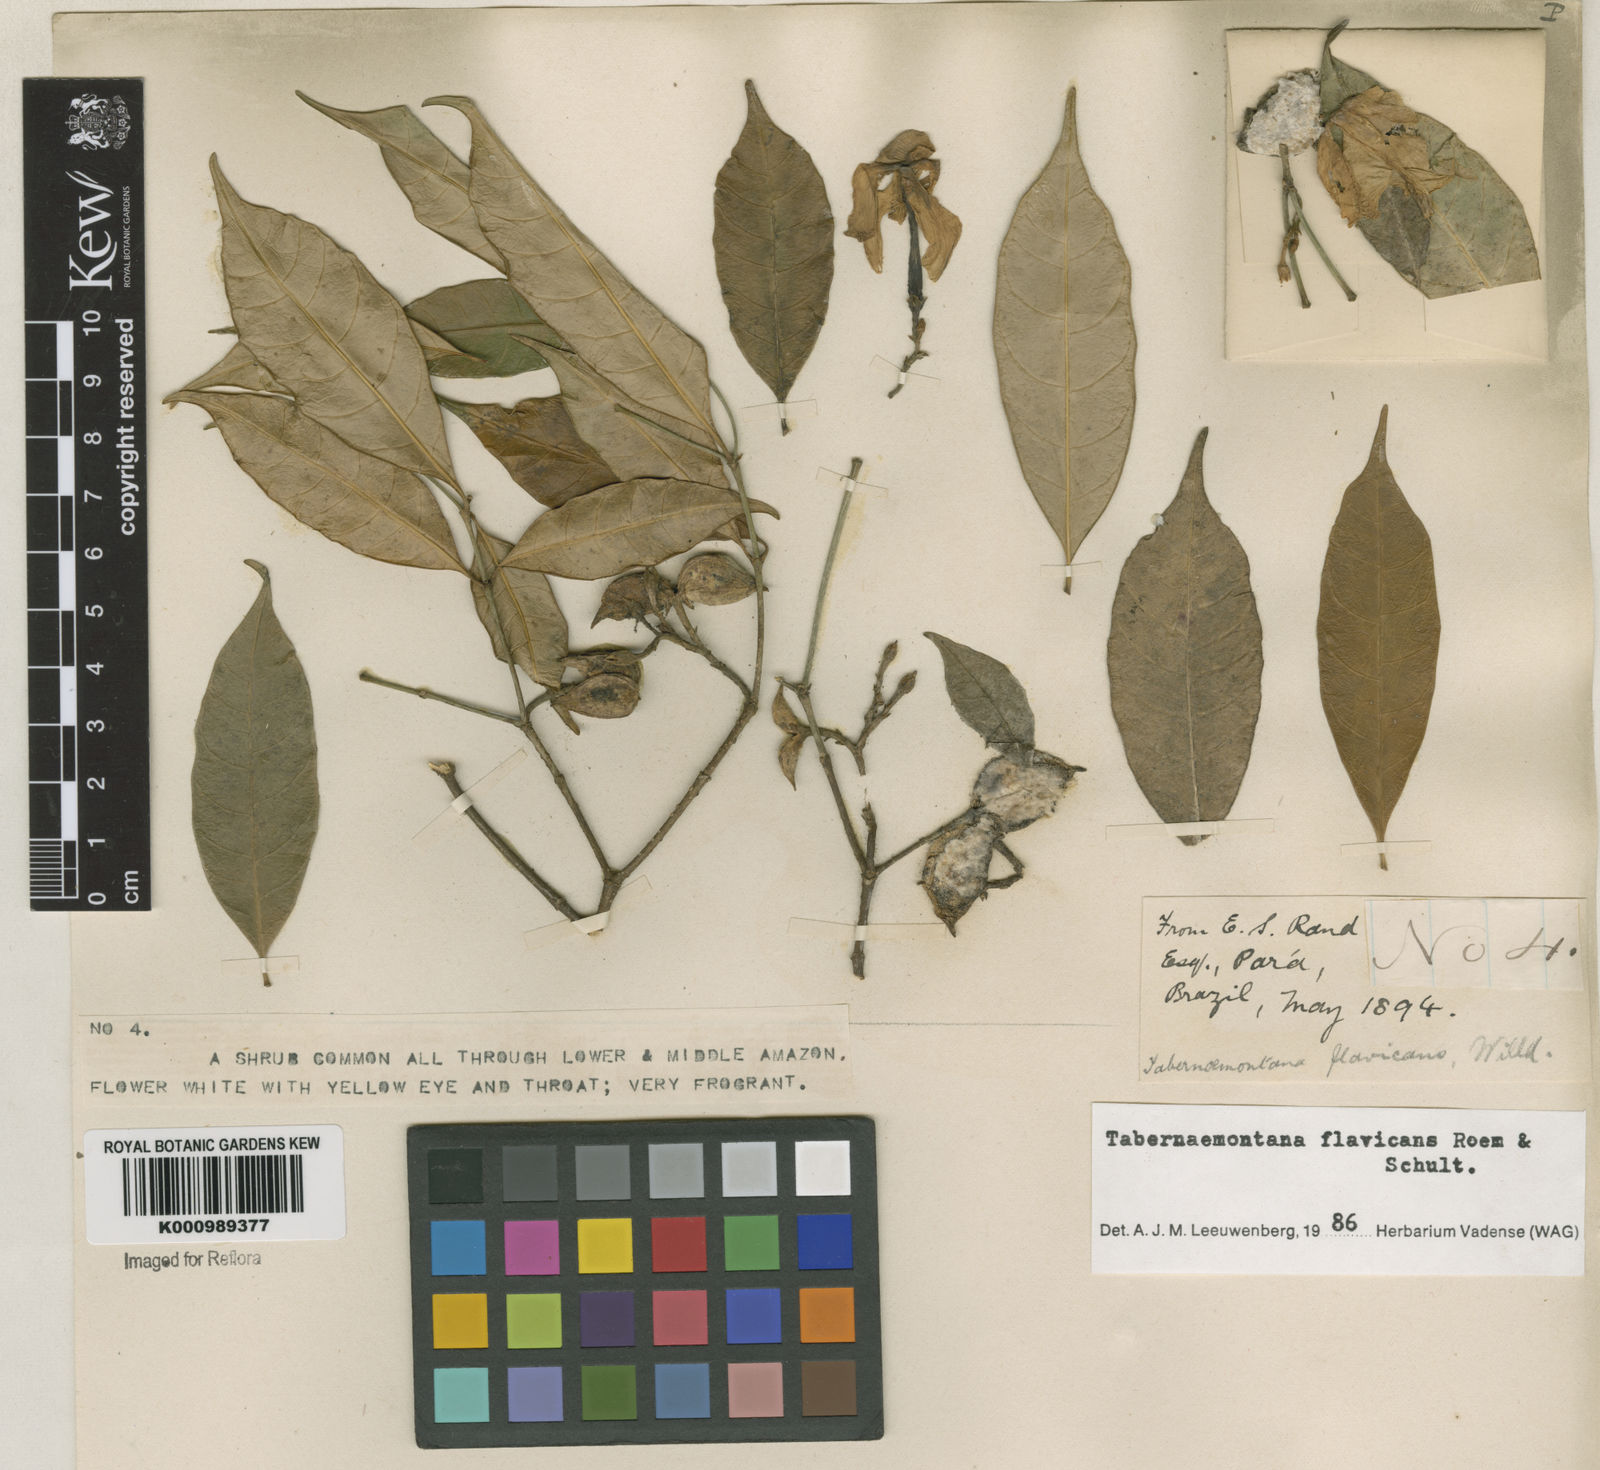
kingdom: Plantae
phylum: Tracheophyta
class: Magnoliopsida
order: Gentianales
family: Apocynaceae
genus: Tabernaemontana
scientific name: Tabernaemontana flavicans
